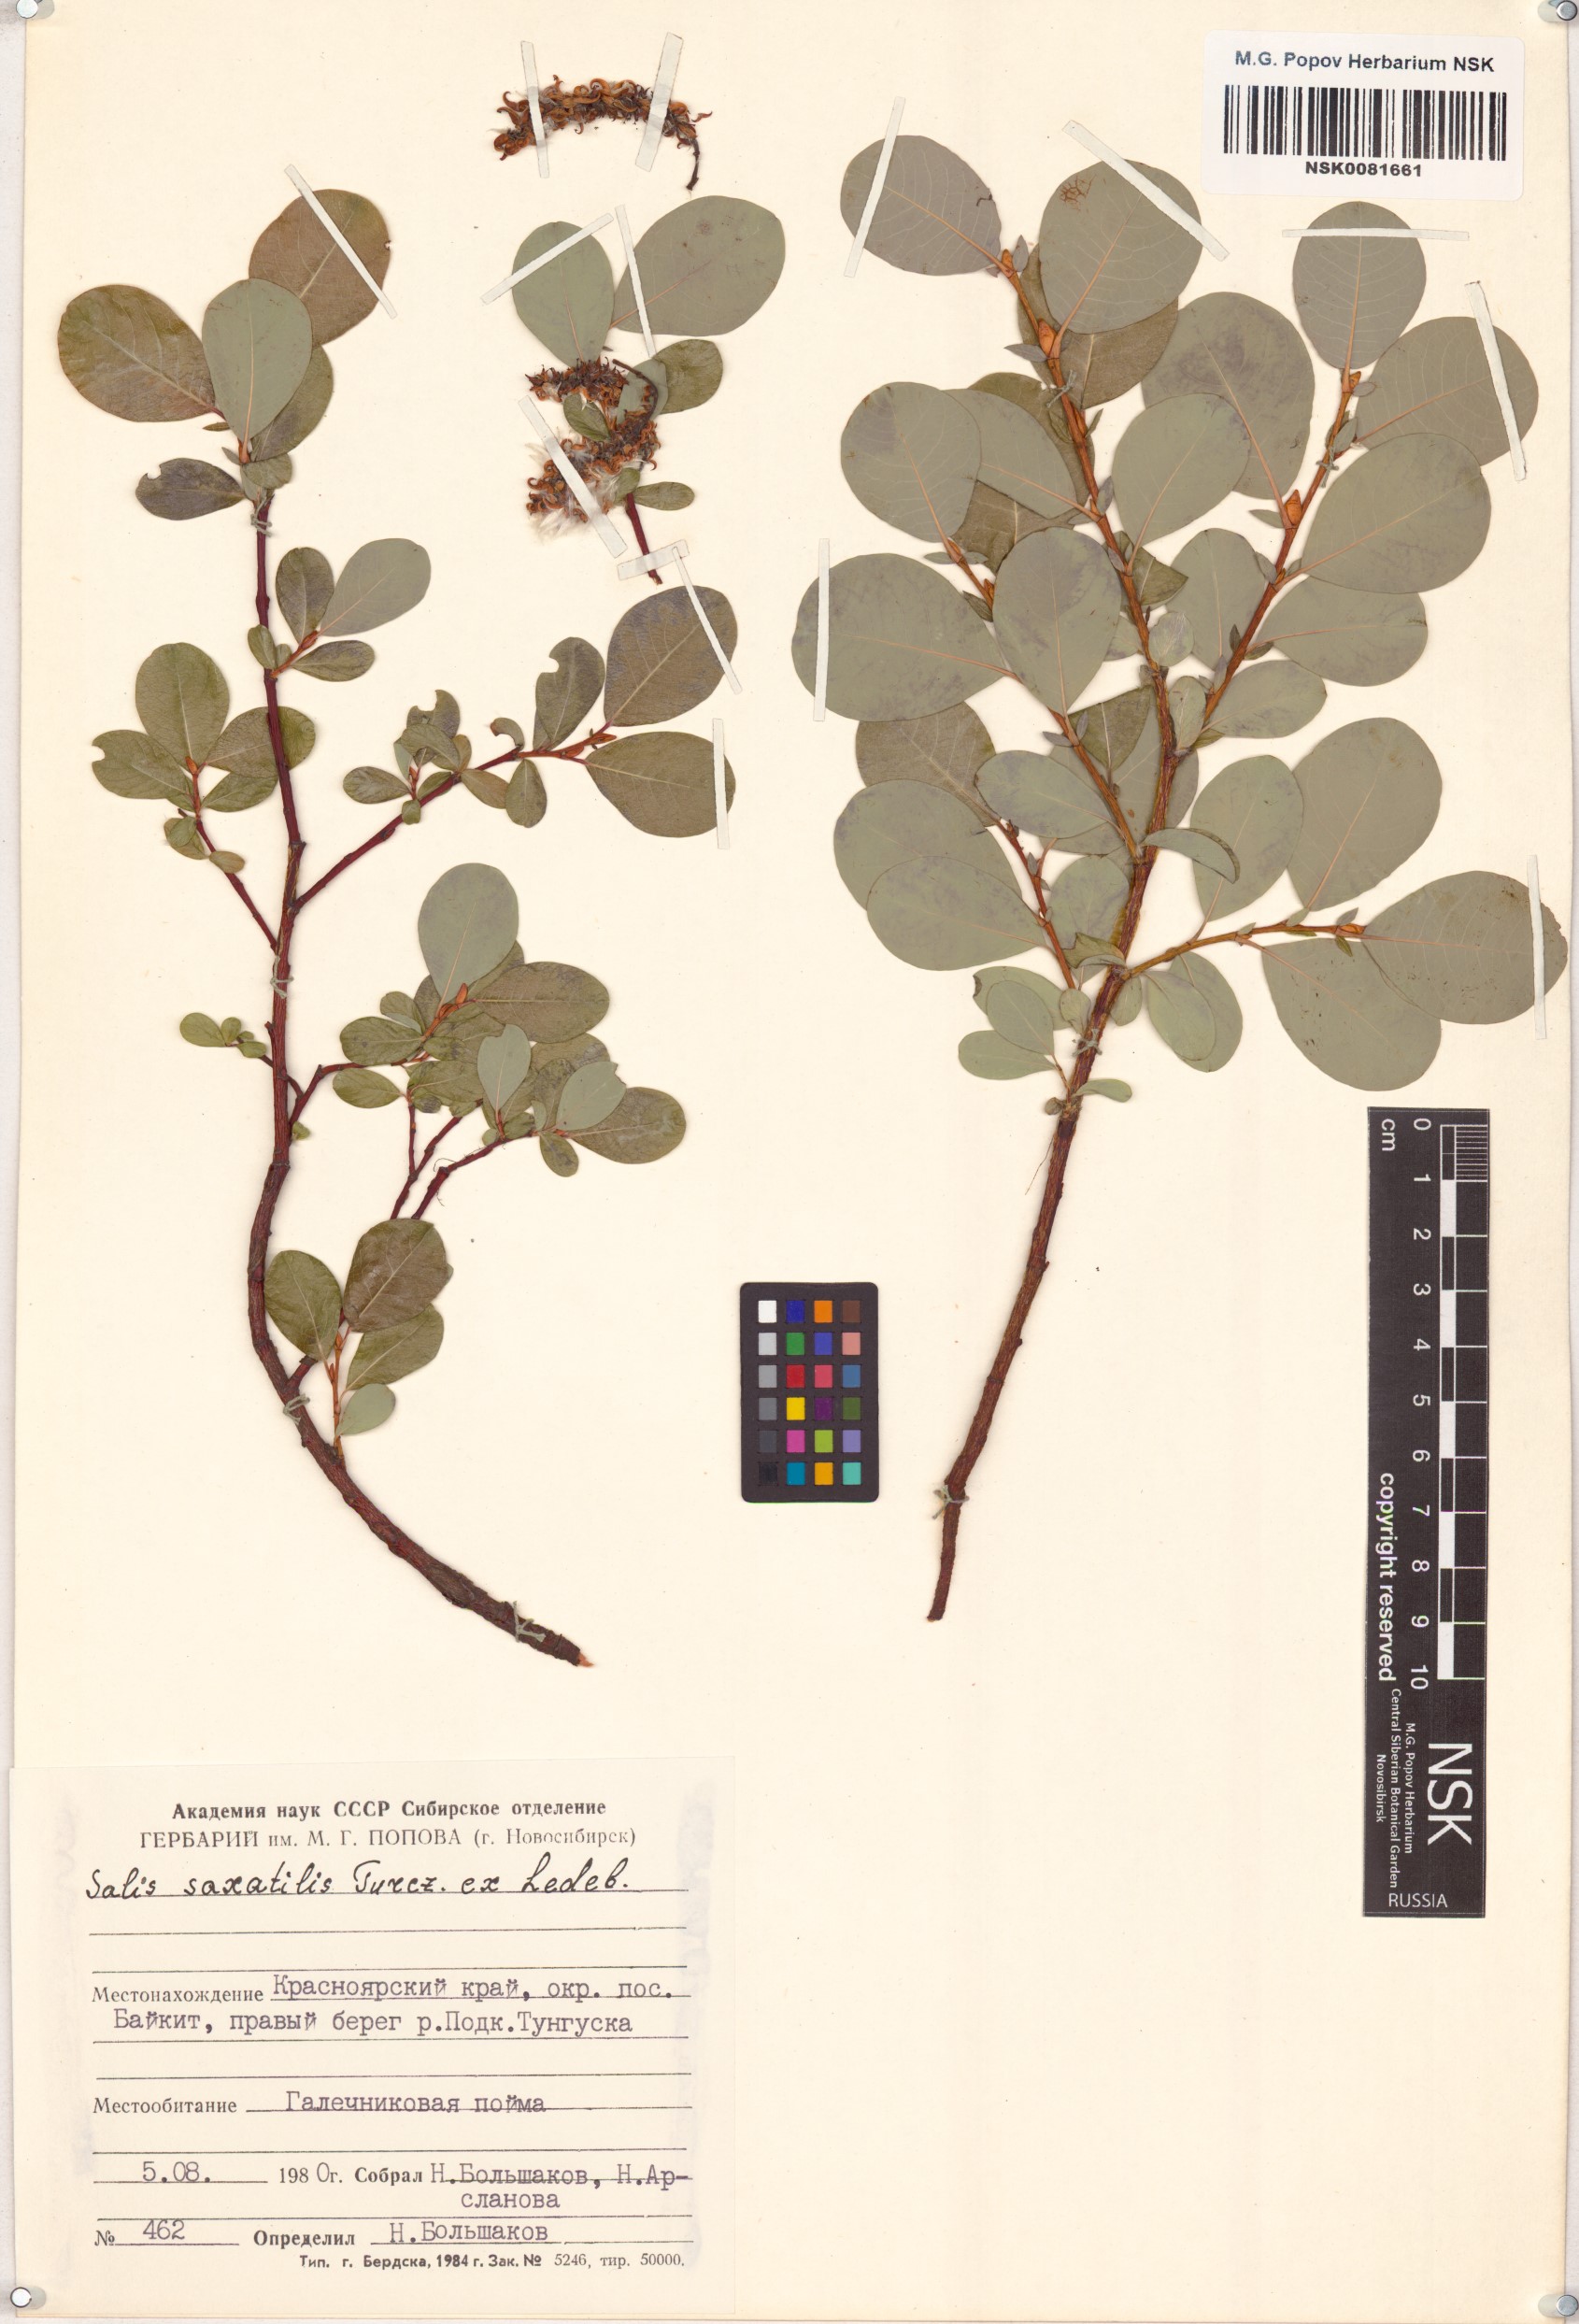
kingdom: Plantae
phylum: Tracheophyta
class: Magnoliopsida
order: Malpighiales
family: Salicaceae
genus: Salix
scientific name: Salix saxatilis
